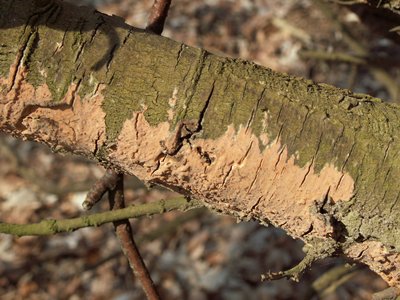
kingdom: Fungi
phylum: Basidiomycota
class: Agaricomycetes
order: Russulales
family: Peniophoraceae
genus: Peniophora
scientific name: Peniophora incarnata
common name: laksefarvet voksskind
